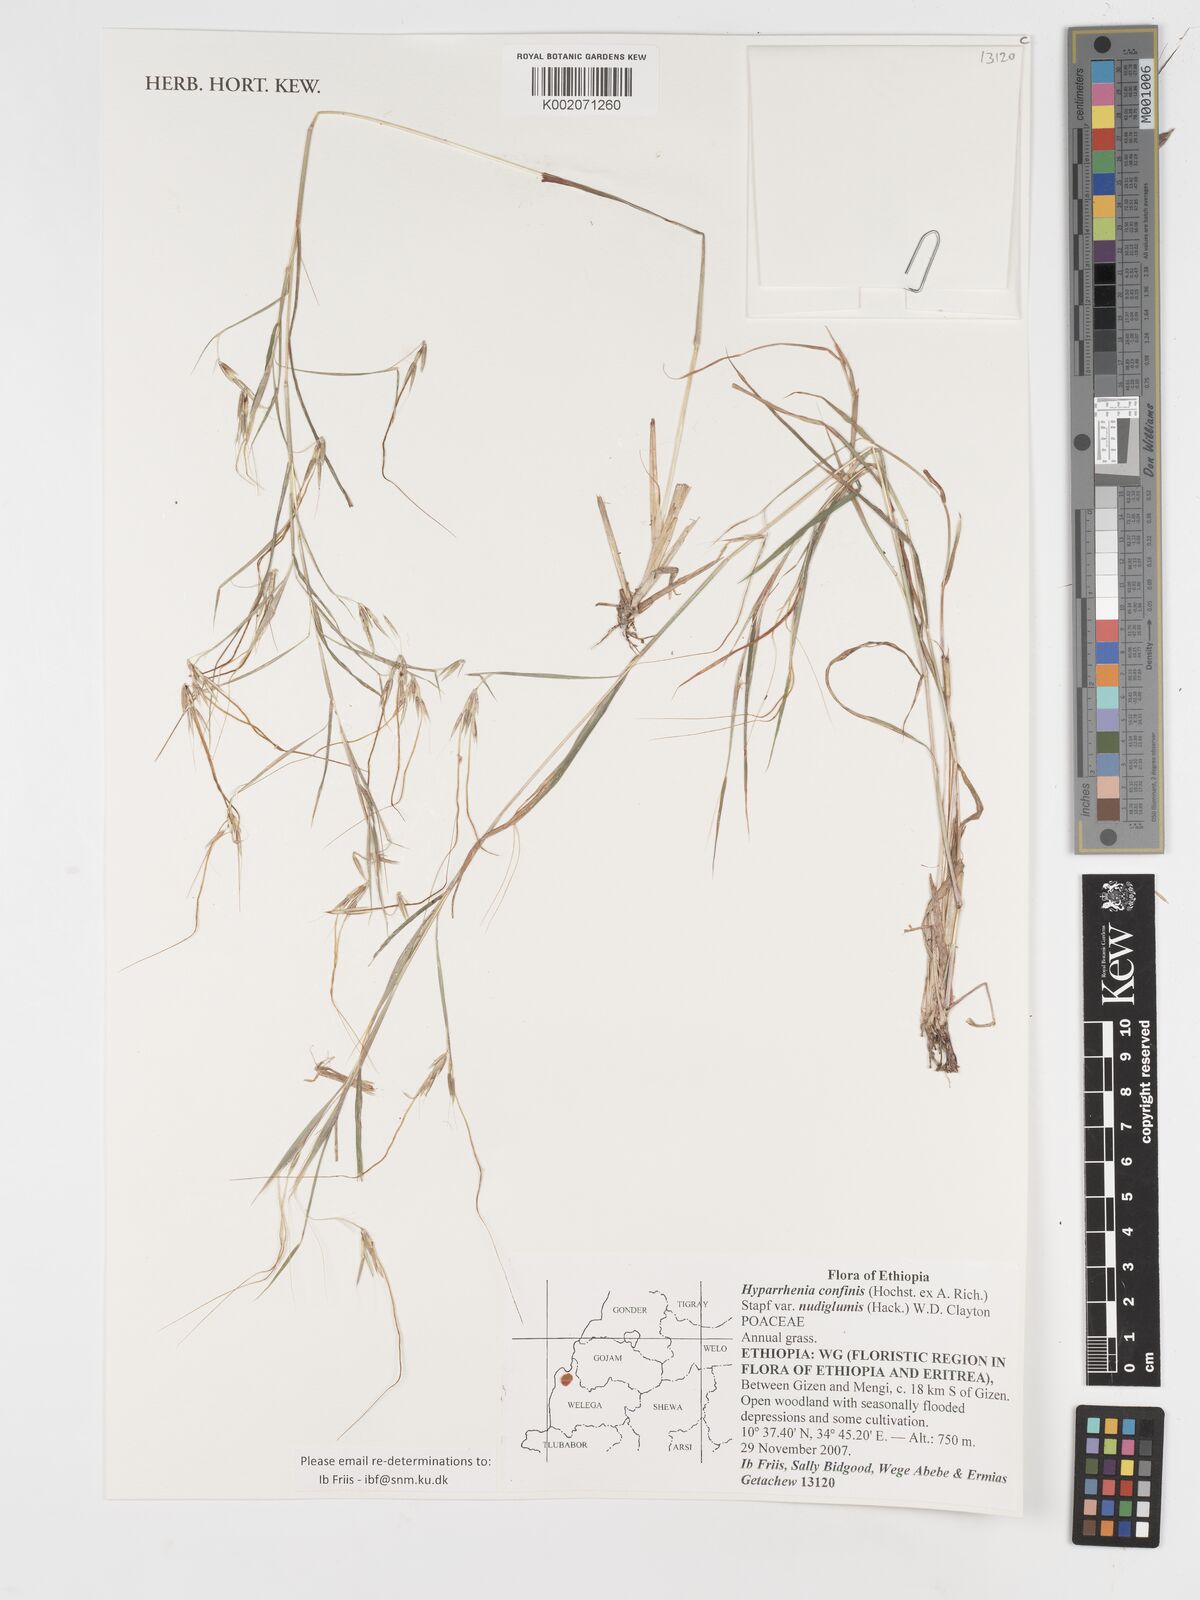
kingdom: Plantae
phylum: Tracheophyta
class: Liliopsida
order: Poales
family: Poaceae
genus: Hyparrhenia
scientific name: Hyparrhenia confinis
